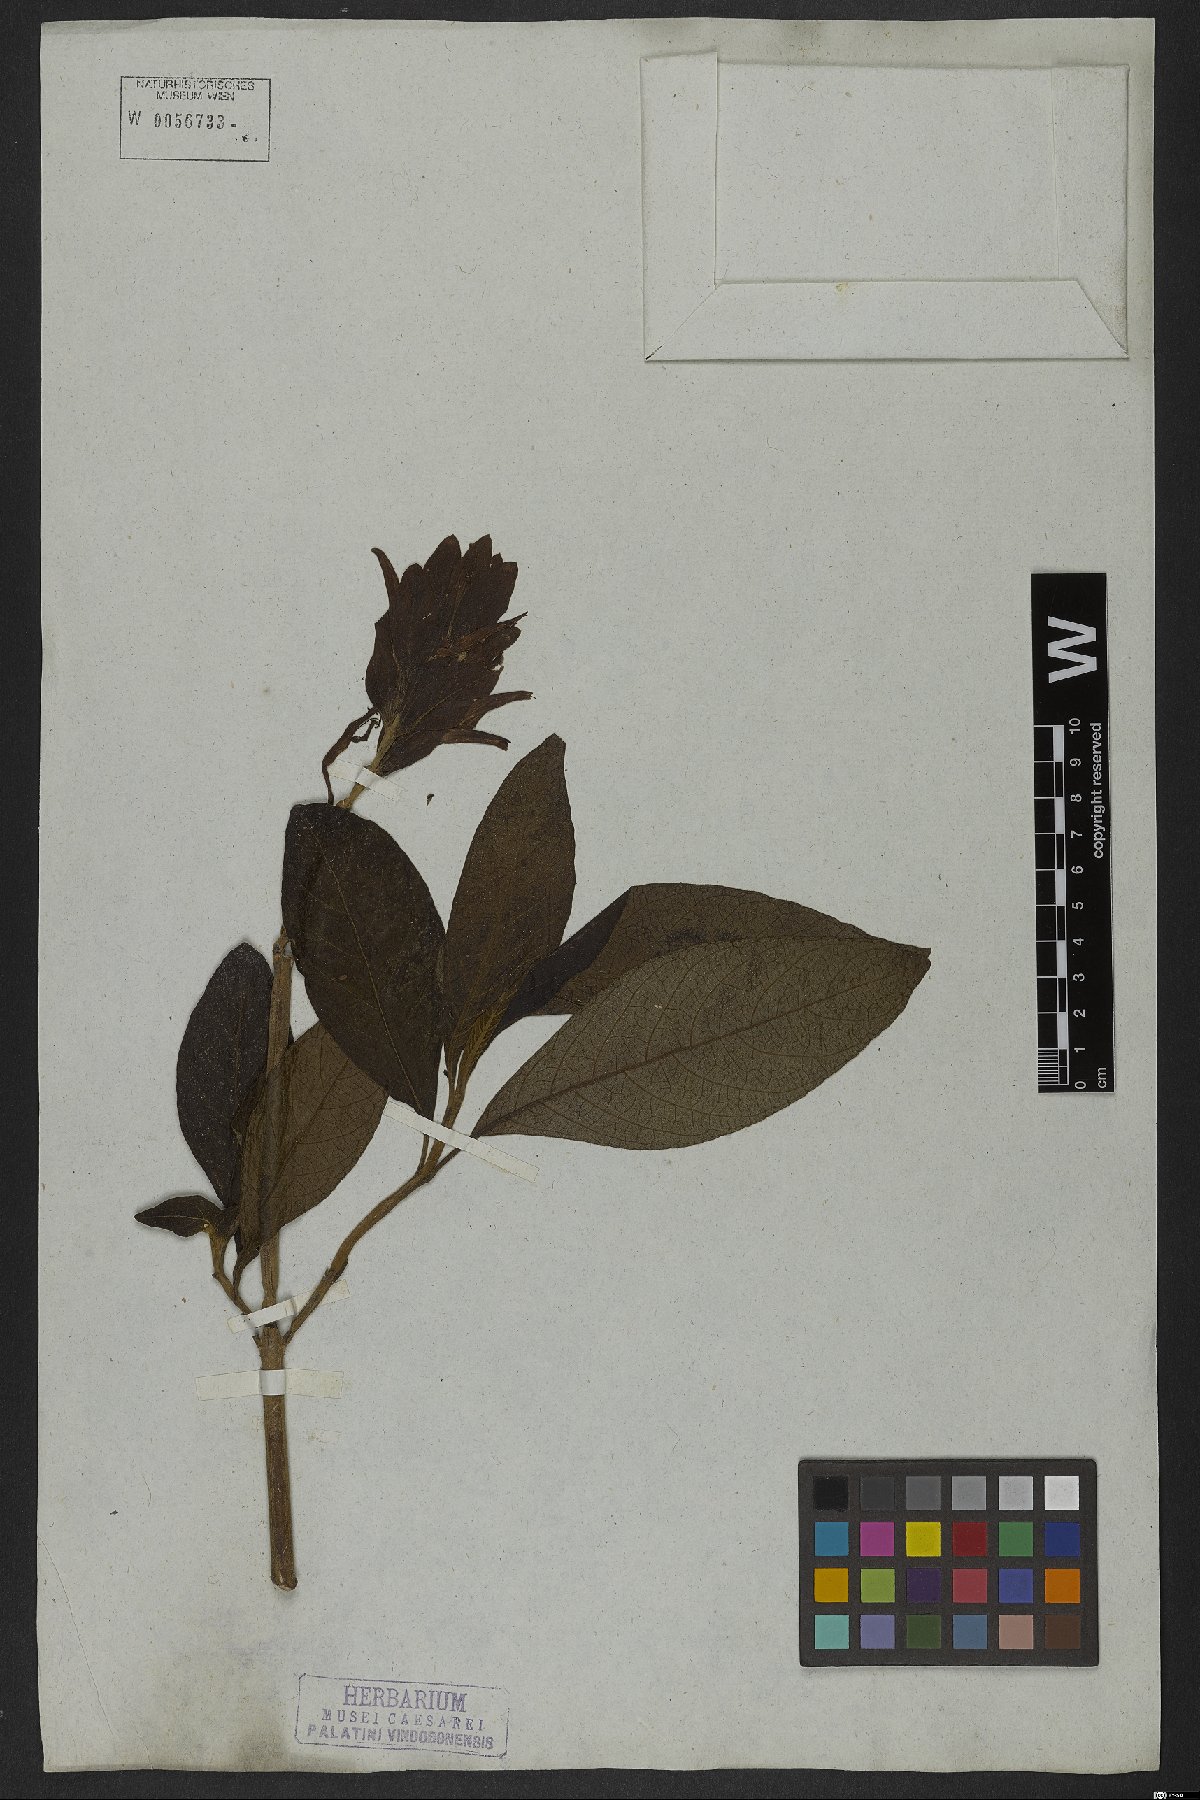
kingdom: Plantae
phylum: Tracheophyta
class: Magnoliopsida
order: Lamiales
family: Acanthaceae
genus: Justicia
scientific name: Justicia monticola
